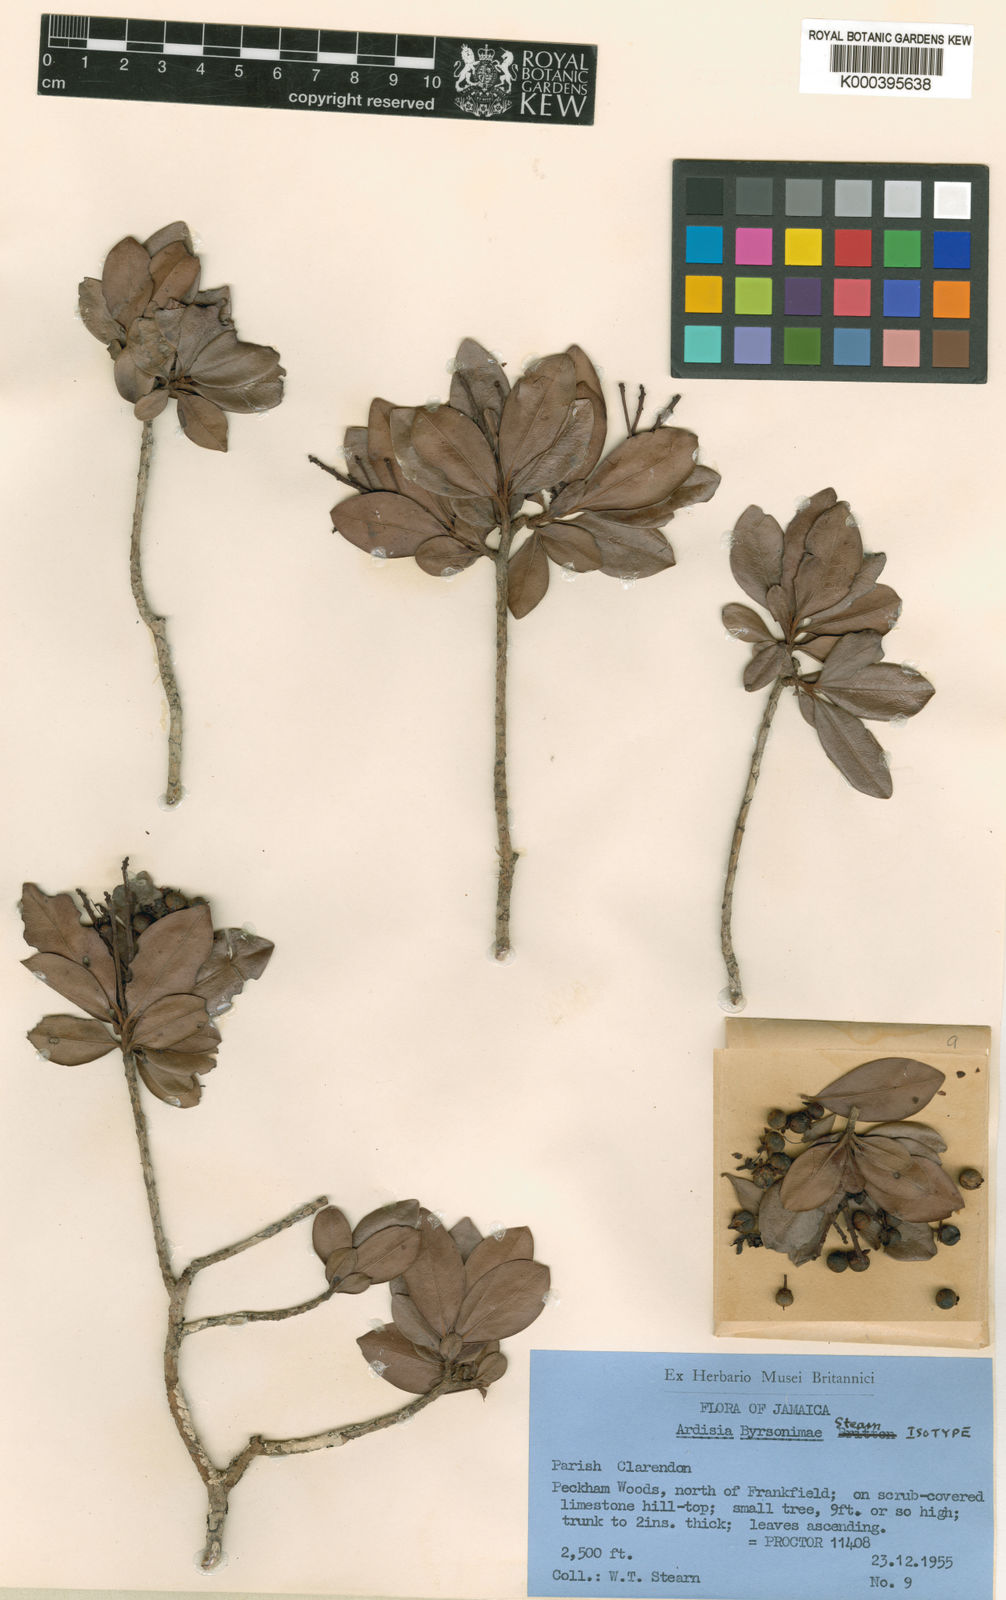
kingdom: Plantae
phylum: Tracheophyta
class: Magnoliopsida
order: Ericales
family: Primulaceae
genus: Ardisia
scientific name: Ardisia byrsonimae
